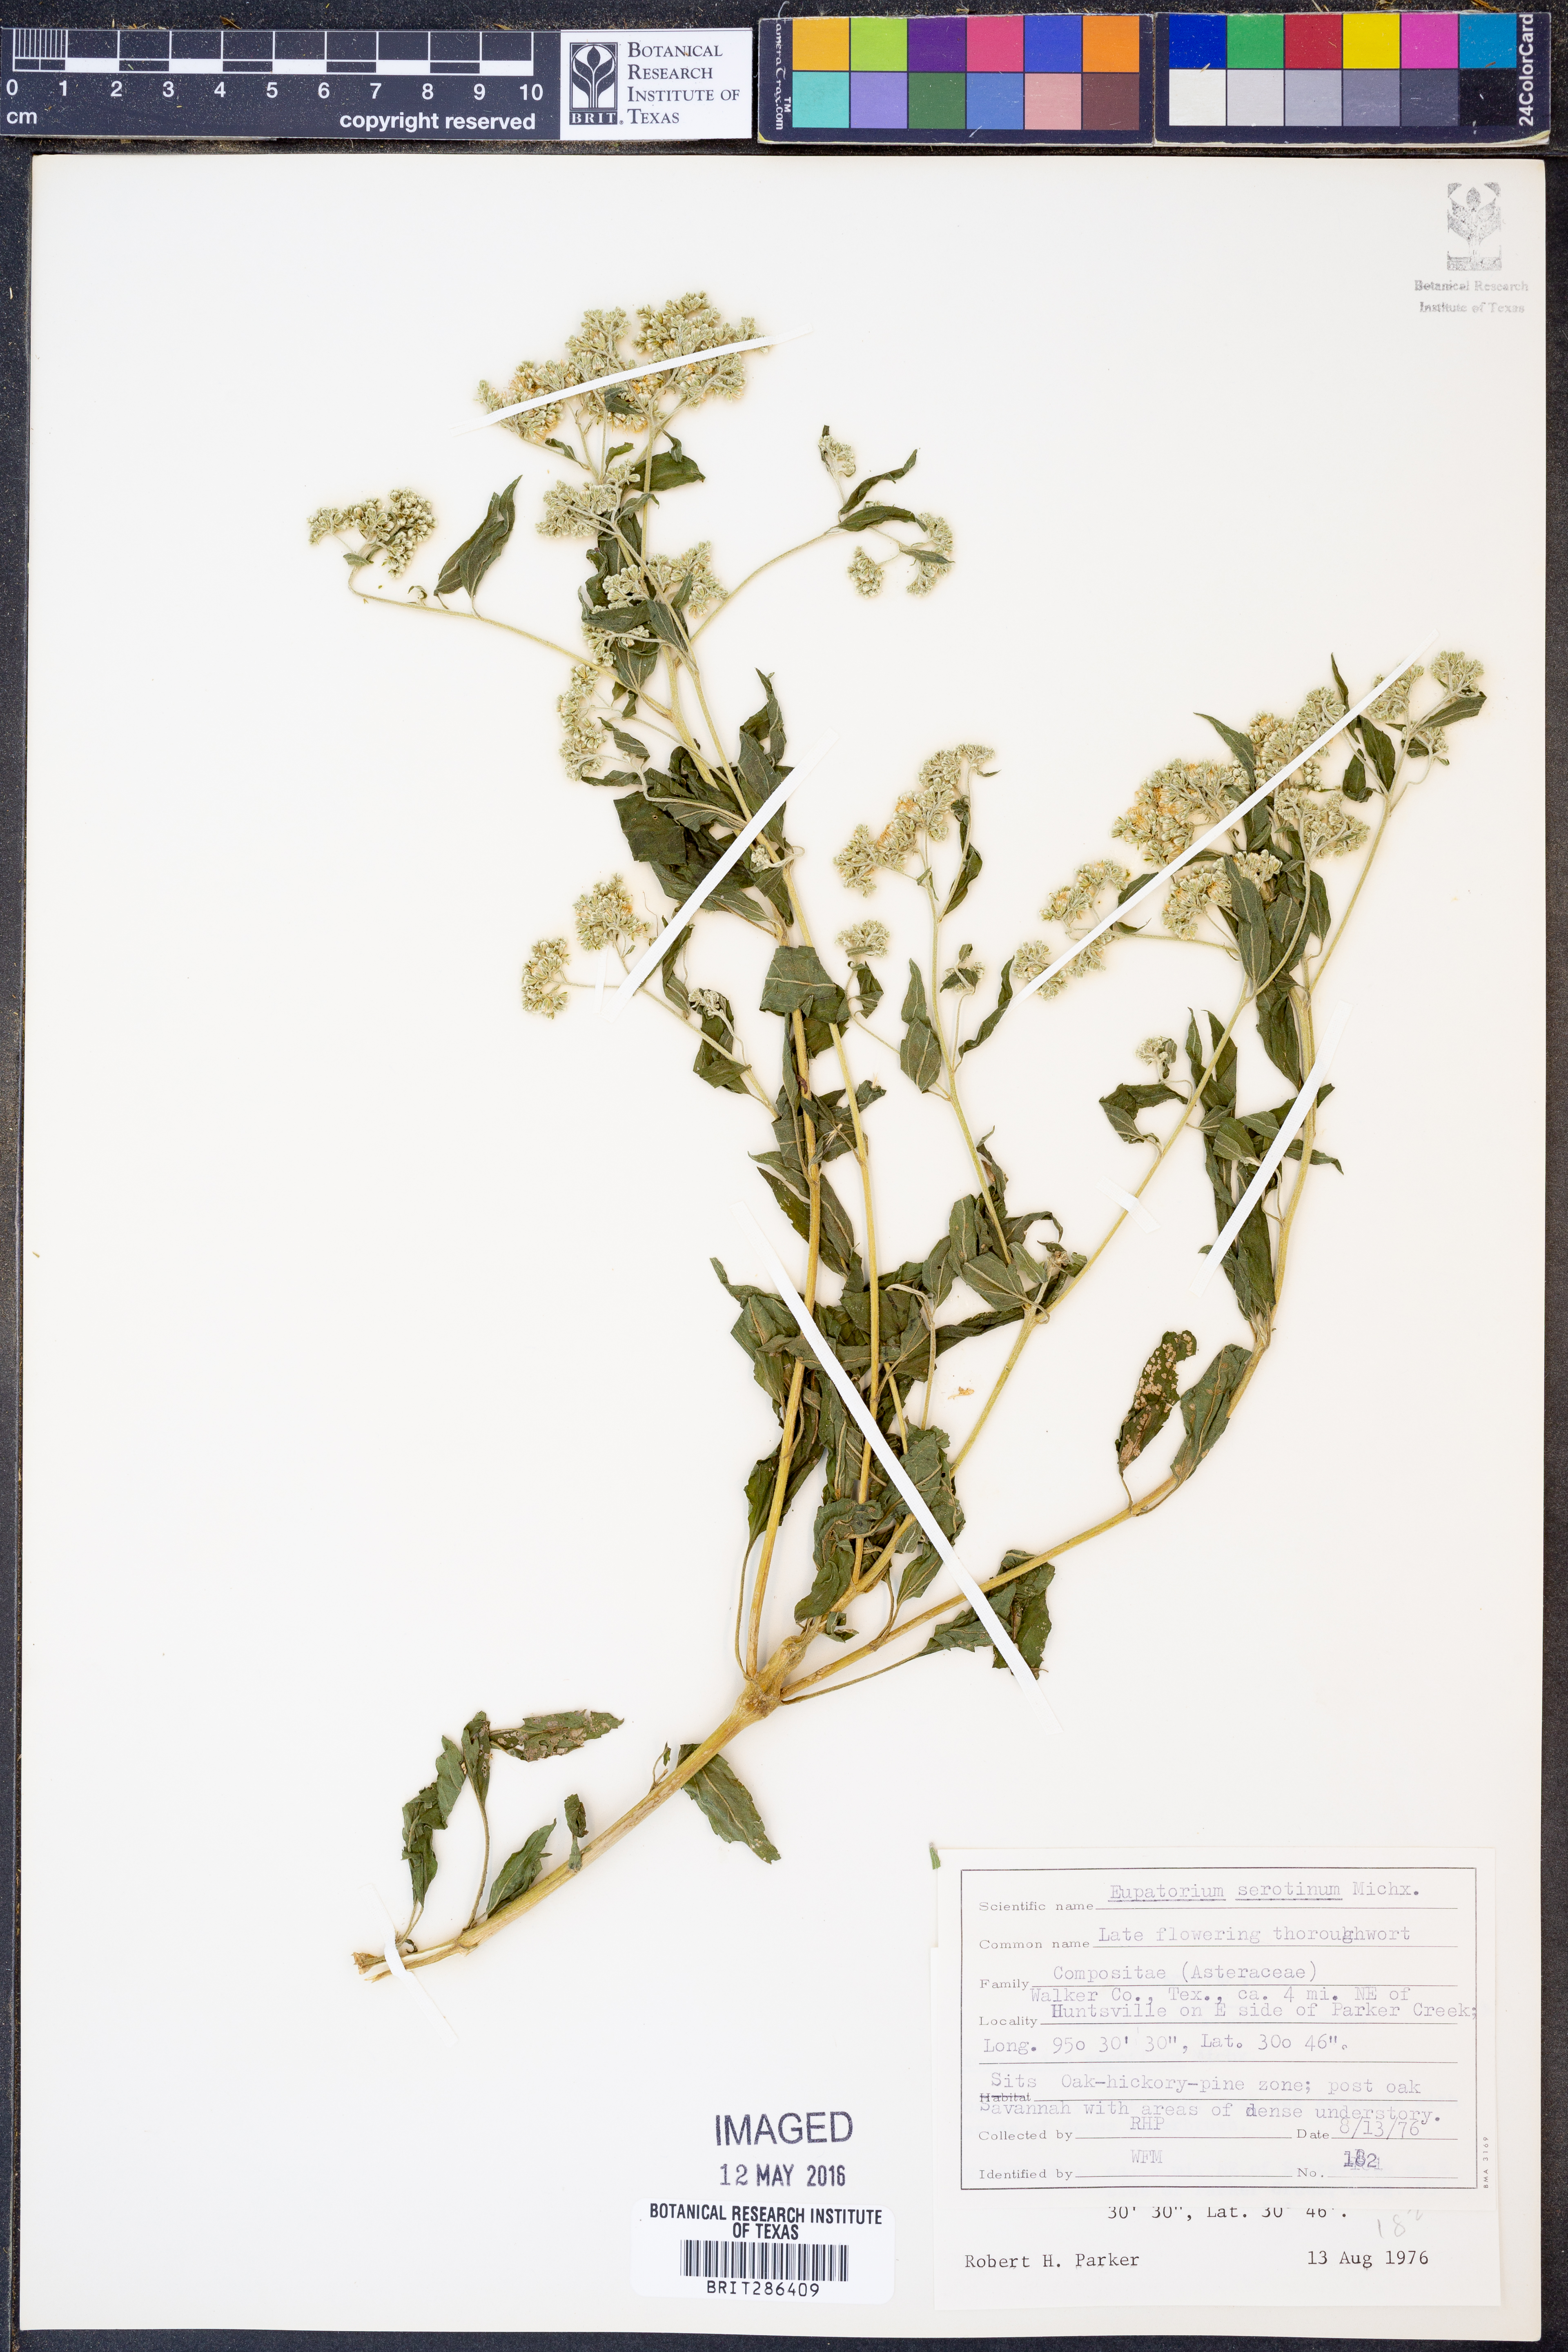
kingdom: Plantae
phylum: Tracheophyta
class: Magnoliopsida
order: Asterales
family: Asteraceae
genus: Eupatorium
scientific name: Eupatorium serotinum
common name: Late boneset
